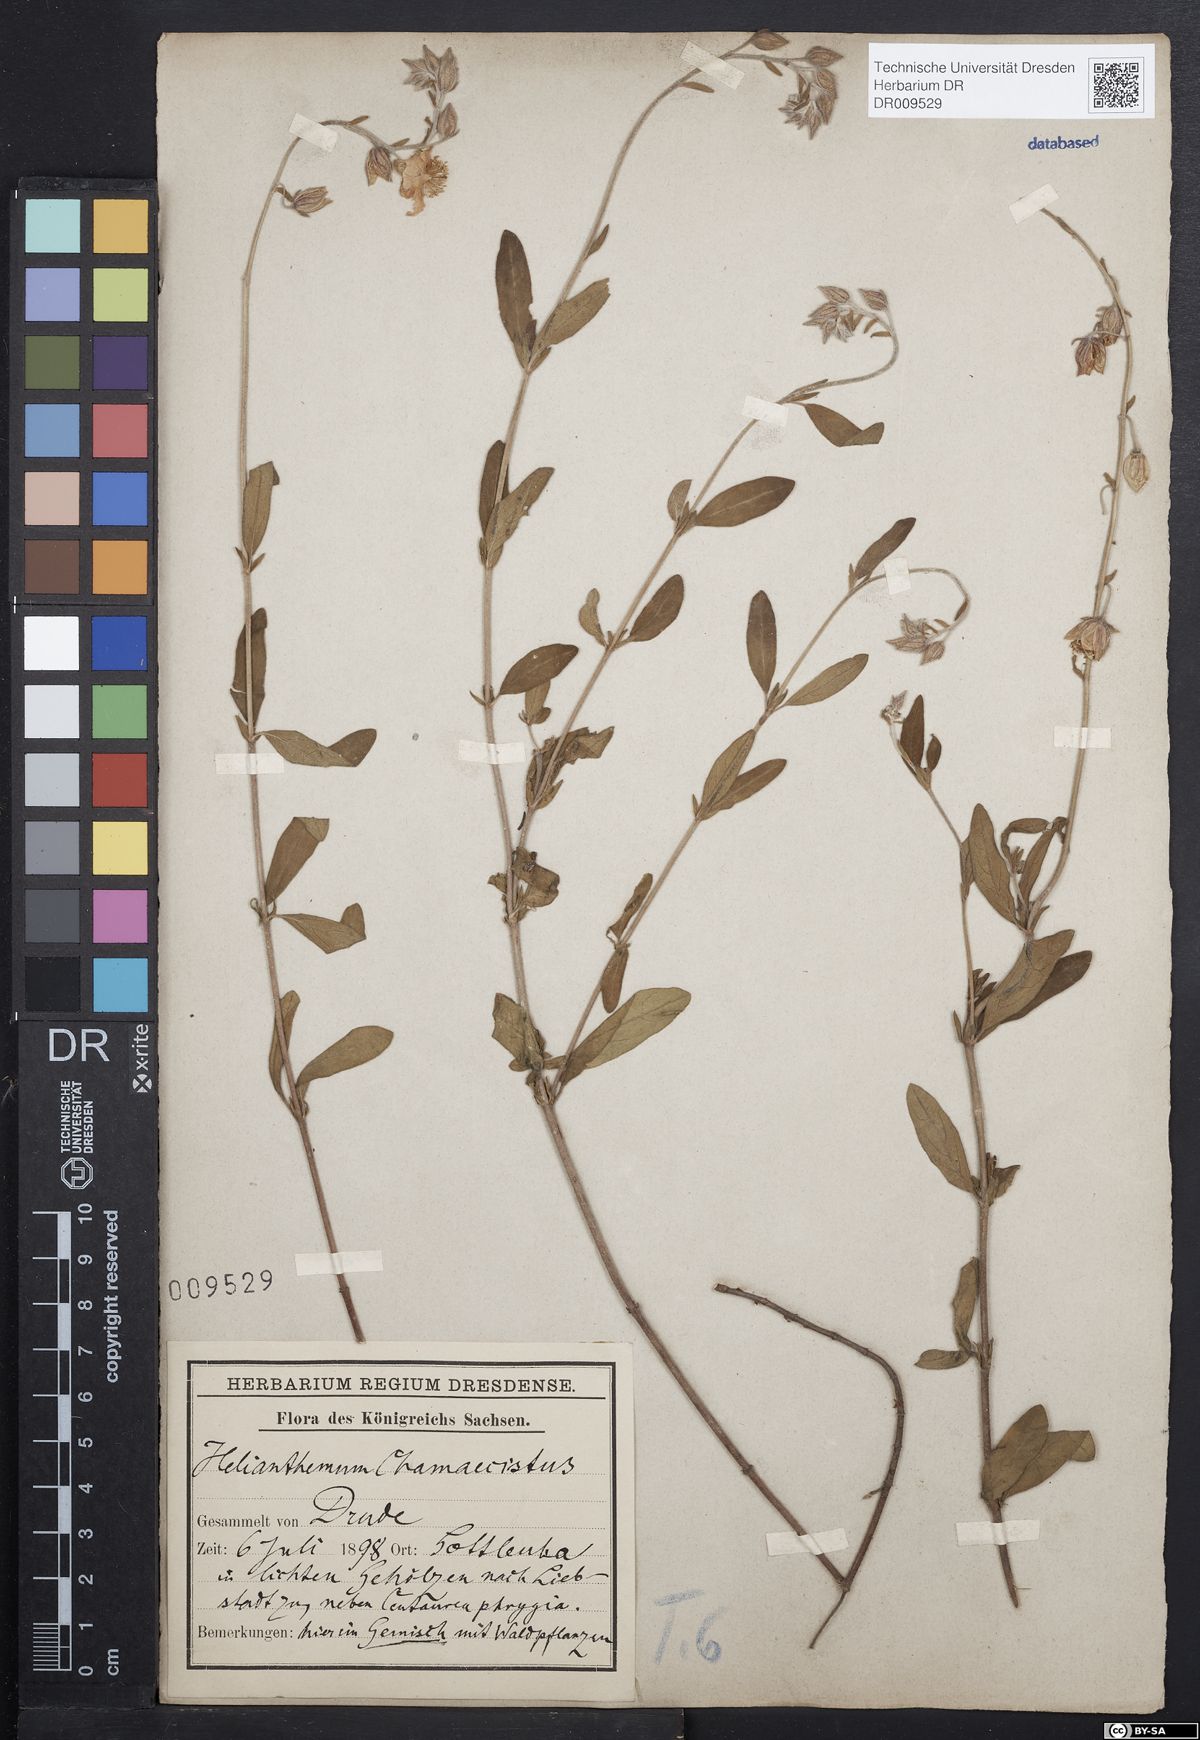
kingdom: Plantae
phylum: Tracheophyta
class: Magnoliopsida
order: Malvales
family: Cistaceae
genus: Helianthemum
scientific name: Helianthemum nummularium
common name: Common rock-rose
